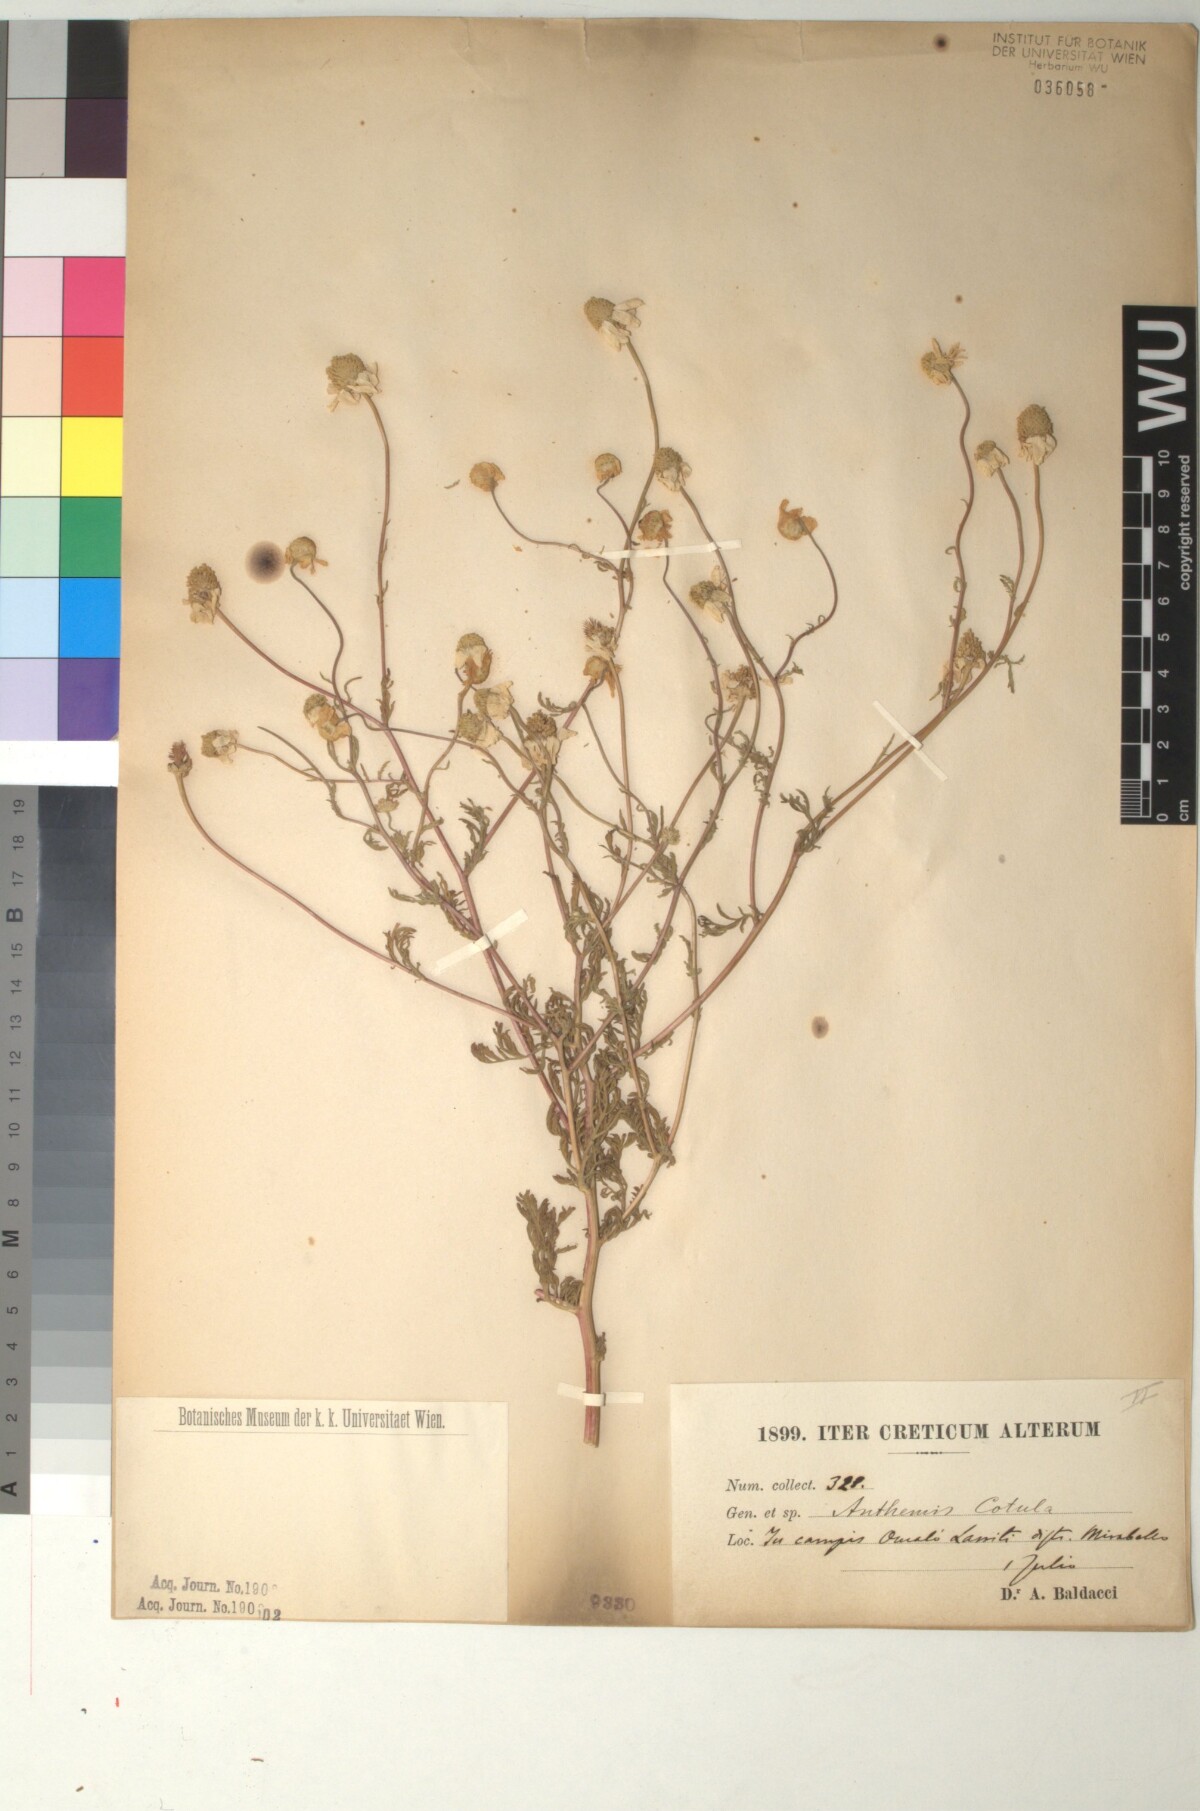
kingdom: Plantae
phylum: Tracheophyta
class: Magnoliopsida
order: Asterales
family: Asteraceae
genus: Anthemis
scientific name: Anthemis cotula
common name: Stinking chamomile
